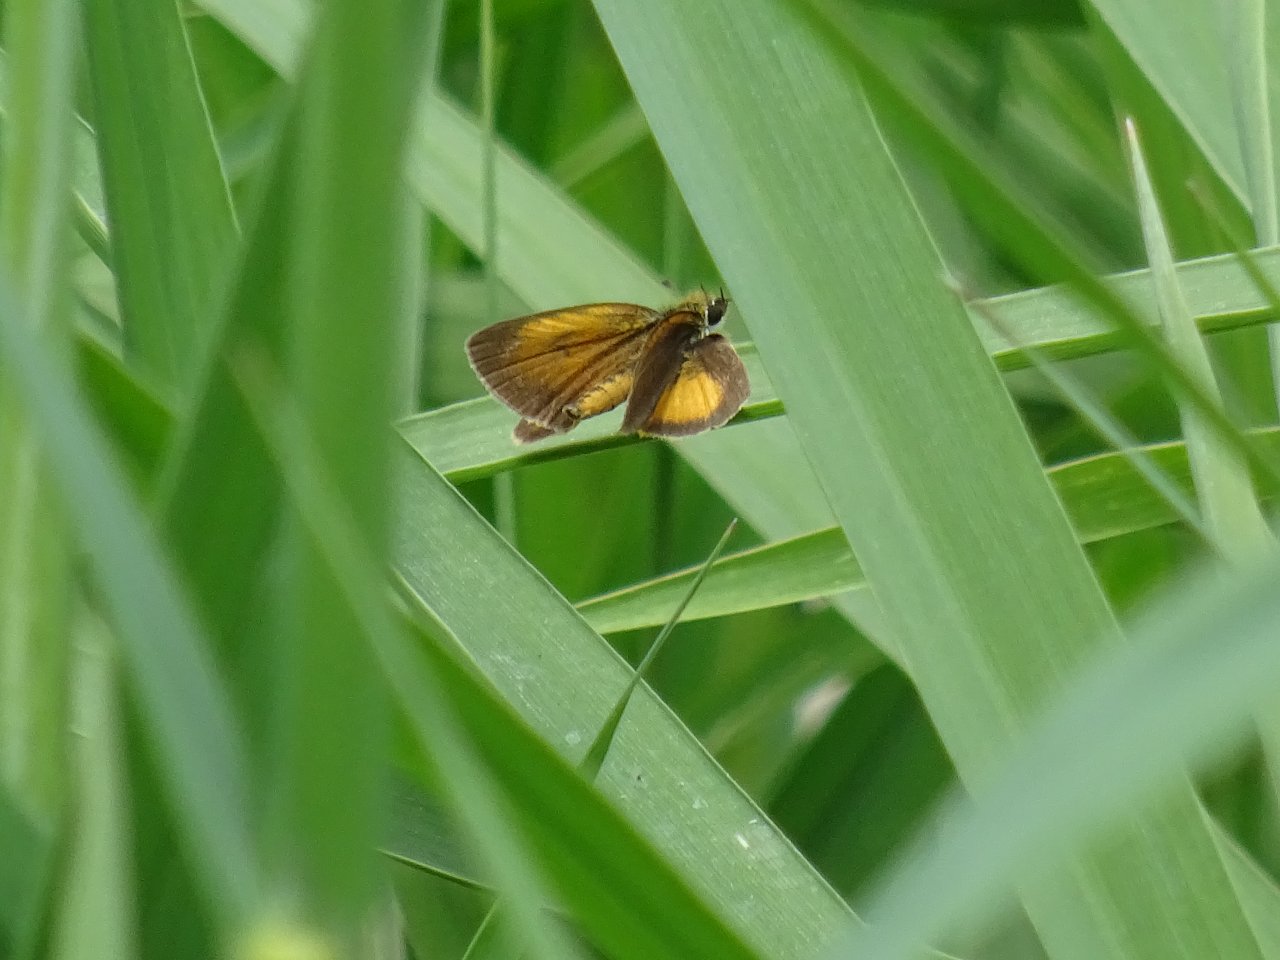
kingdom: Animalia
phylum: Arthropoda
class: Insecta
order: Lepidoptera
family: Hesperiidae
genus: Ancyloxypha
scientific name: Ancyloxypha numitor
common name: Least Skipper
